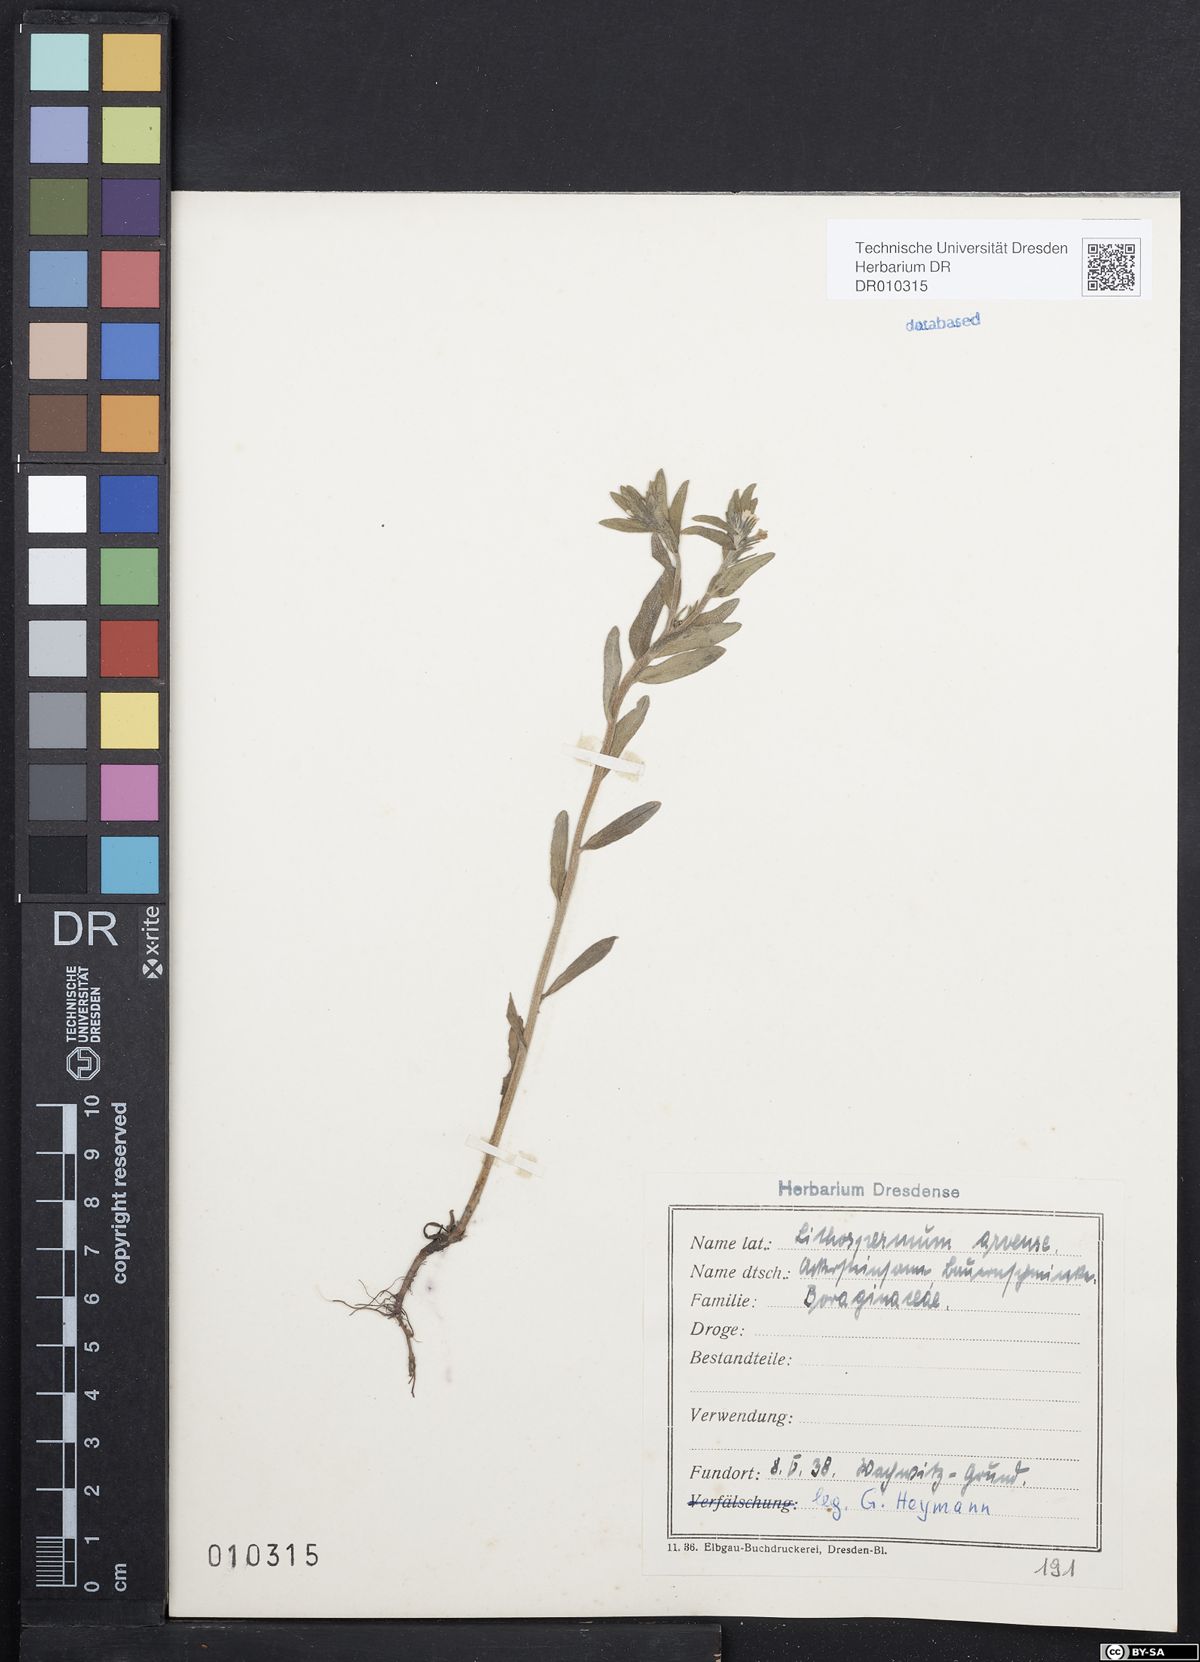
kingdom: Plantae
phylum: Tracheophyta
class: Magnoliopsida
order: Boraginales
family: Boraginaceae
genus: Buglossoides
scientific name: Buglossoides arvensis
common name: Corn gromwell
